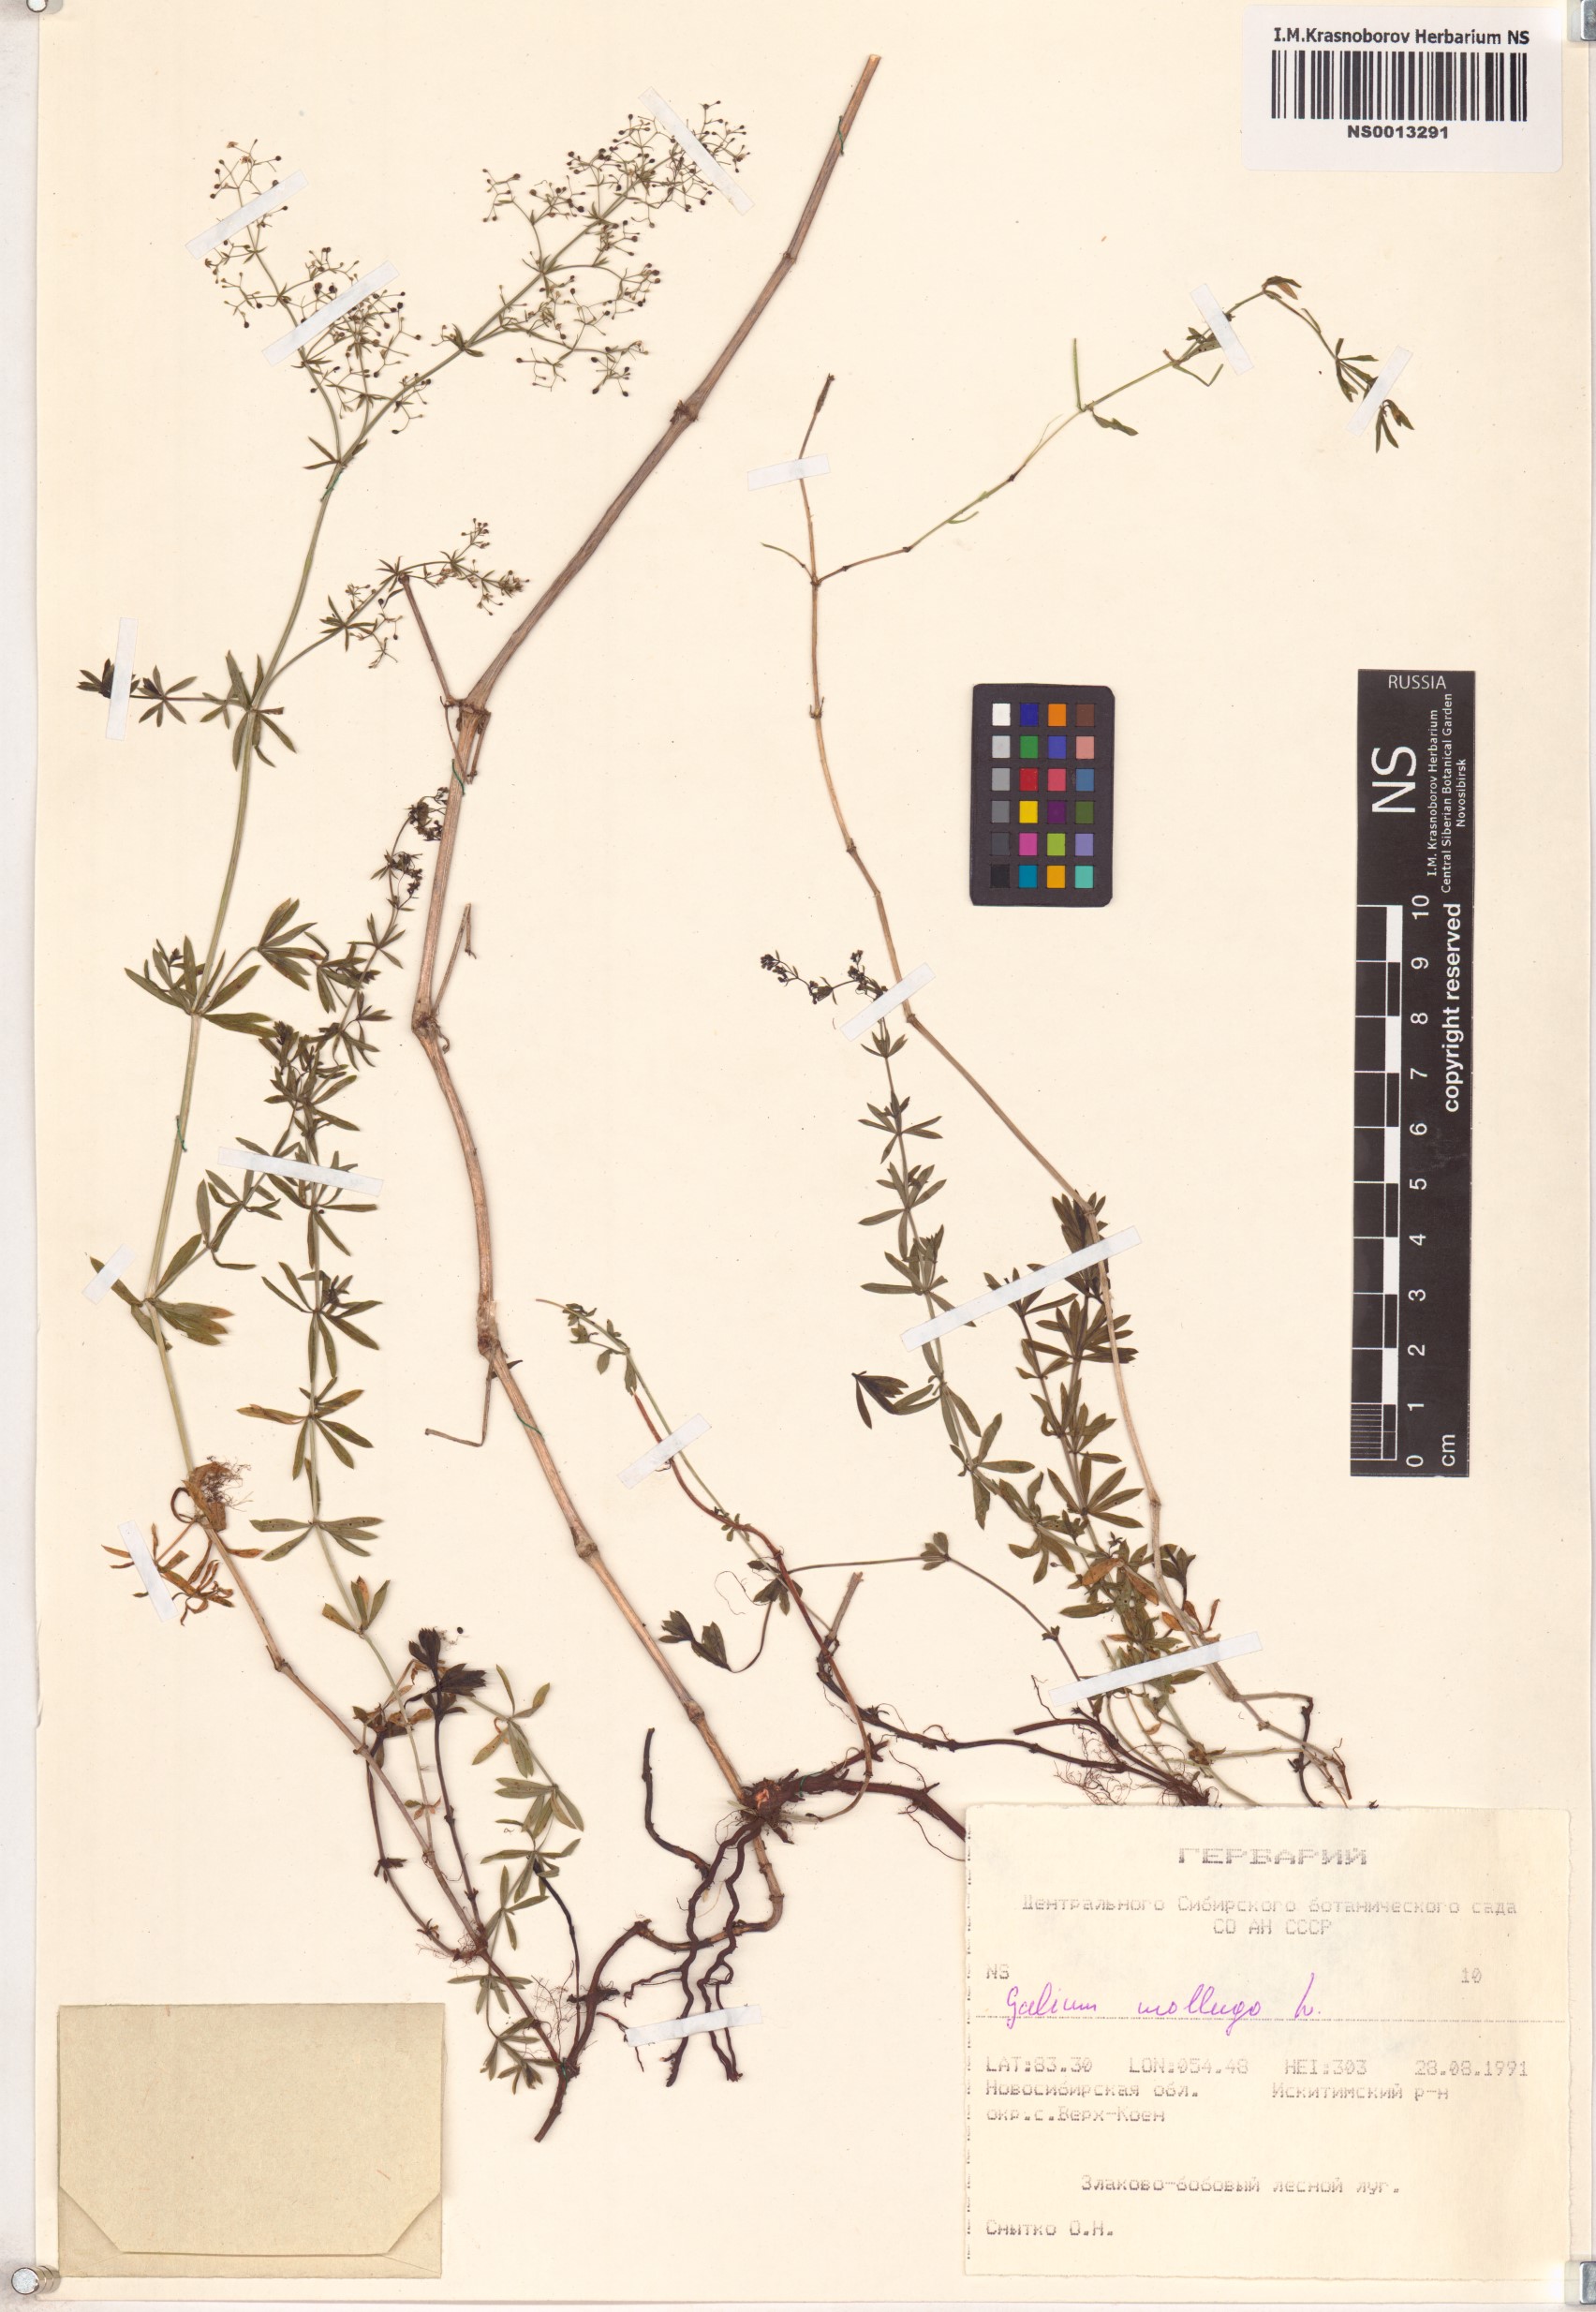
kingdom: Plantae
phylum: Tracheophyta
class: Magnoliopsida
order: Gentianales
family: Rubiaceae
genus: Galium
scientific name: Galium mollugo
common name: Hedge bedstraw
